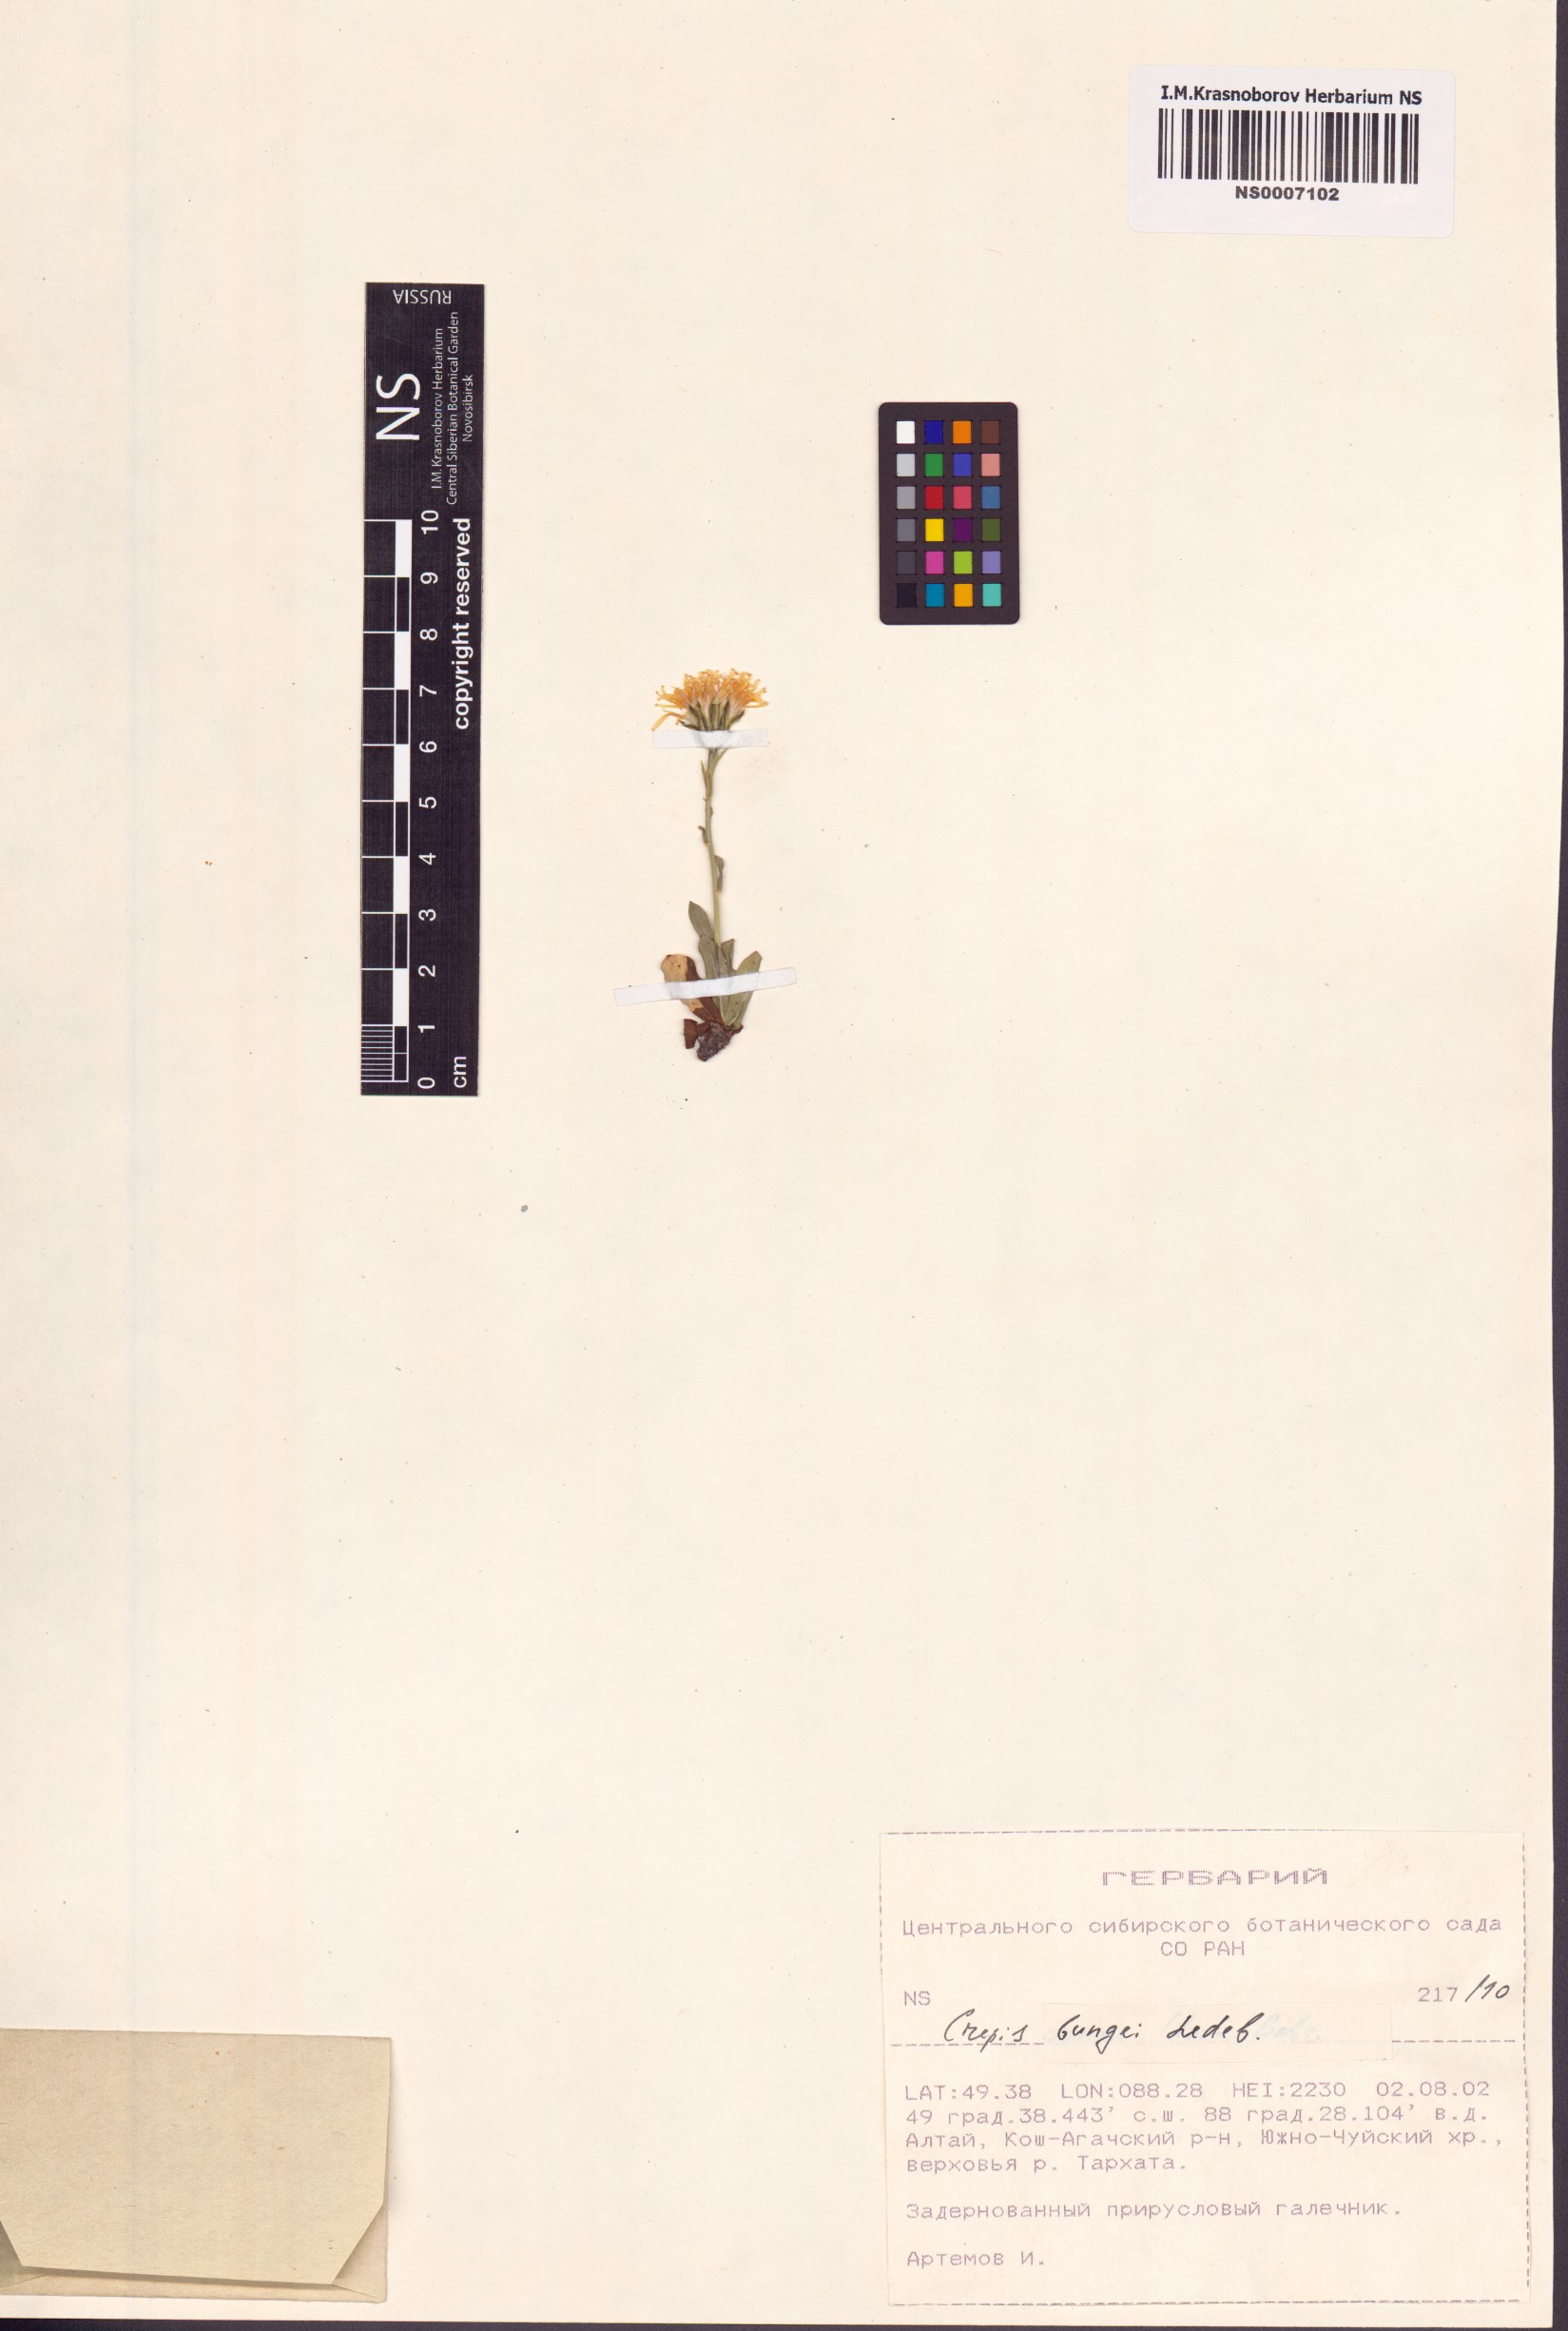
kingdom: Plantae
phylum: Tracheophyta
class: Magnoliopsida
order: Asterales
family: Asteraceae
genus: Crepis
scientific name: Crepis bungei
